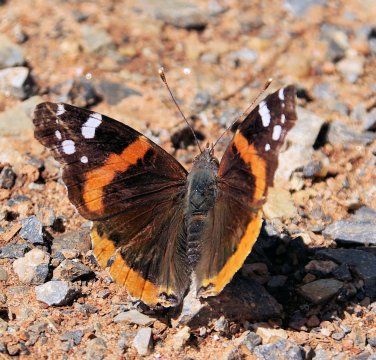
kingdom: Animalia
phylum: Arthropoda
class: Insecta
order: Lepidoptera
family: Nymphalidae
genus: Vanessa
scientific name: Vanessa atalanta
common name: Red Admiral
